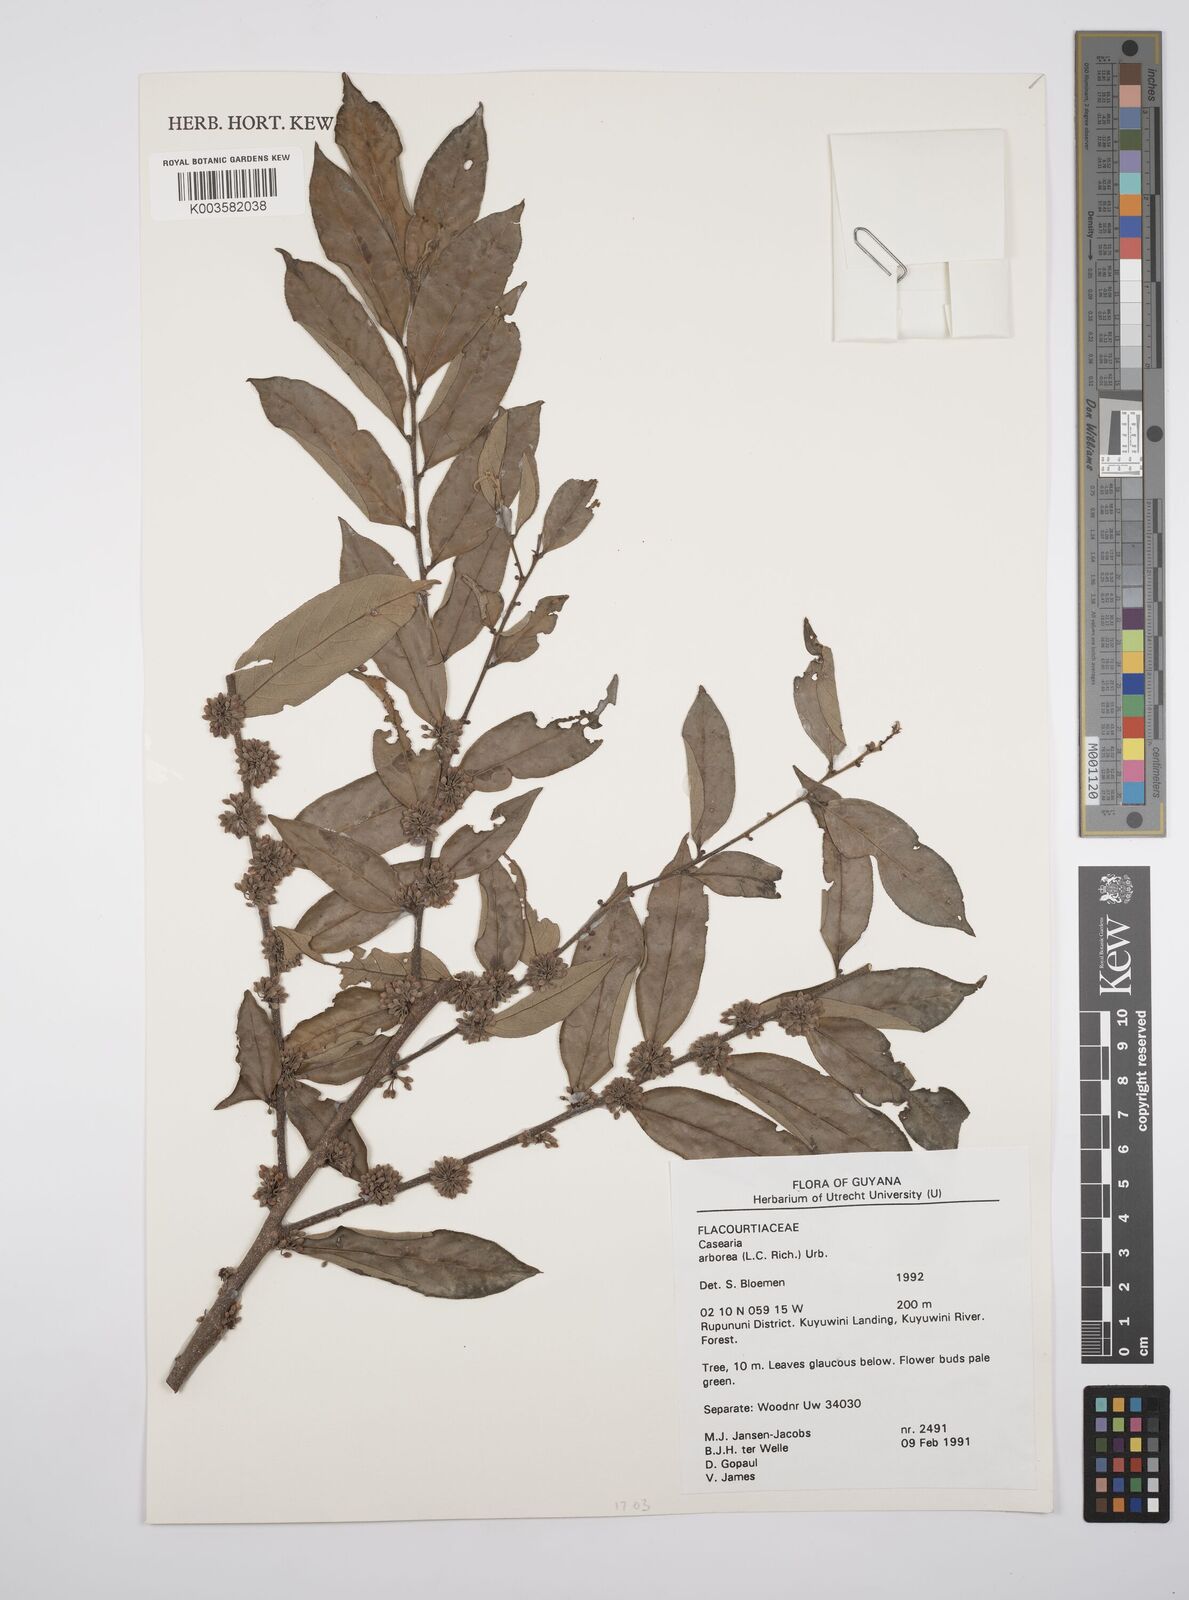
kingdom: Plantae
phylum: Tracheophyta
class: Magnoliopsida
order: Malpighiales
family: Salicaceae
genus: Casearia
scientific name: Casearia arborea
